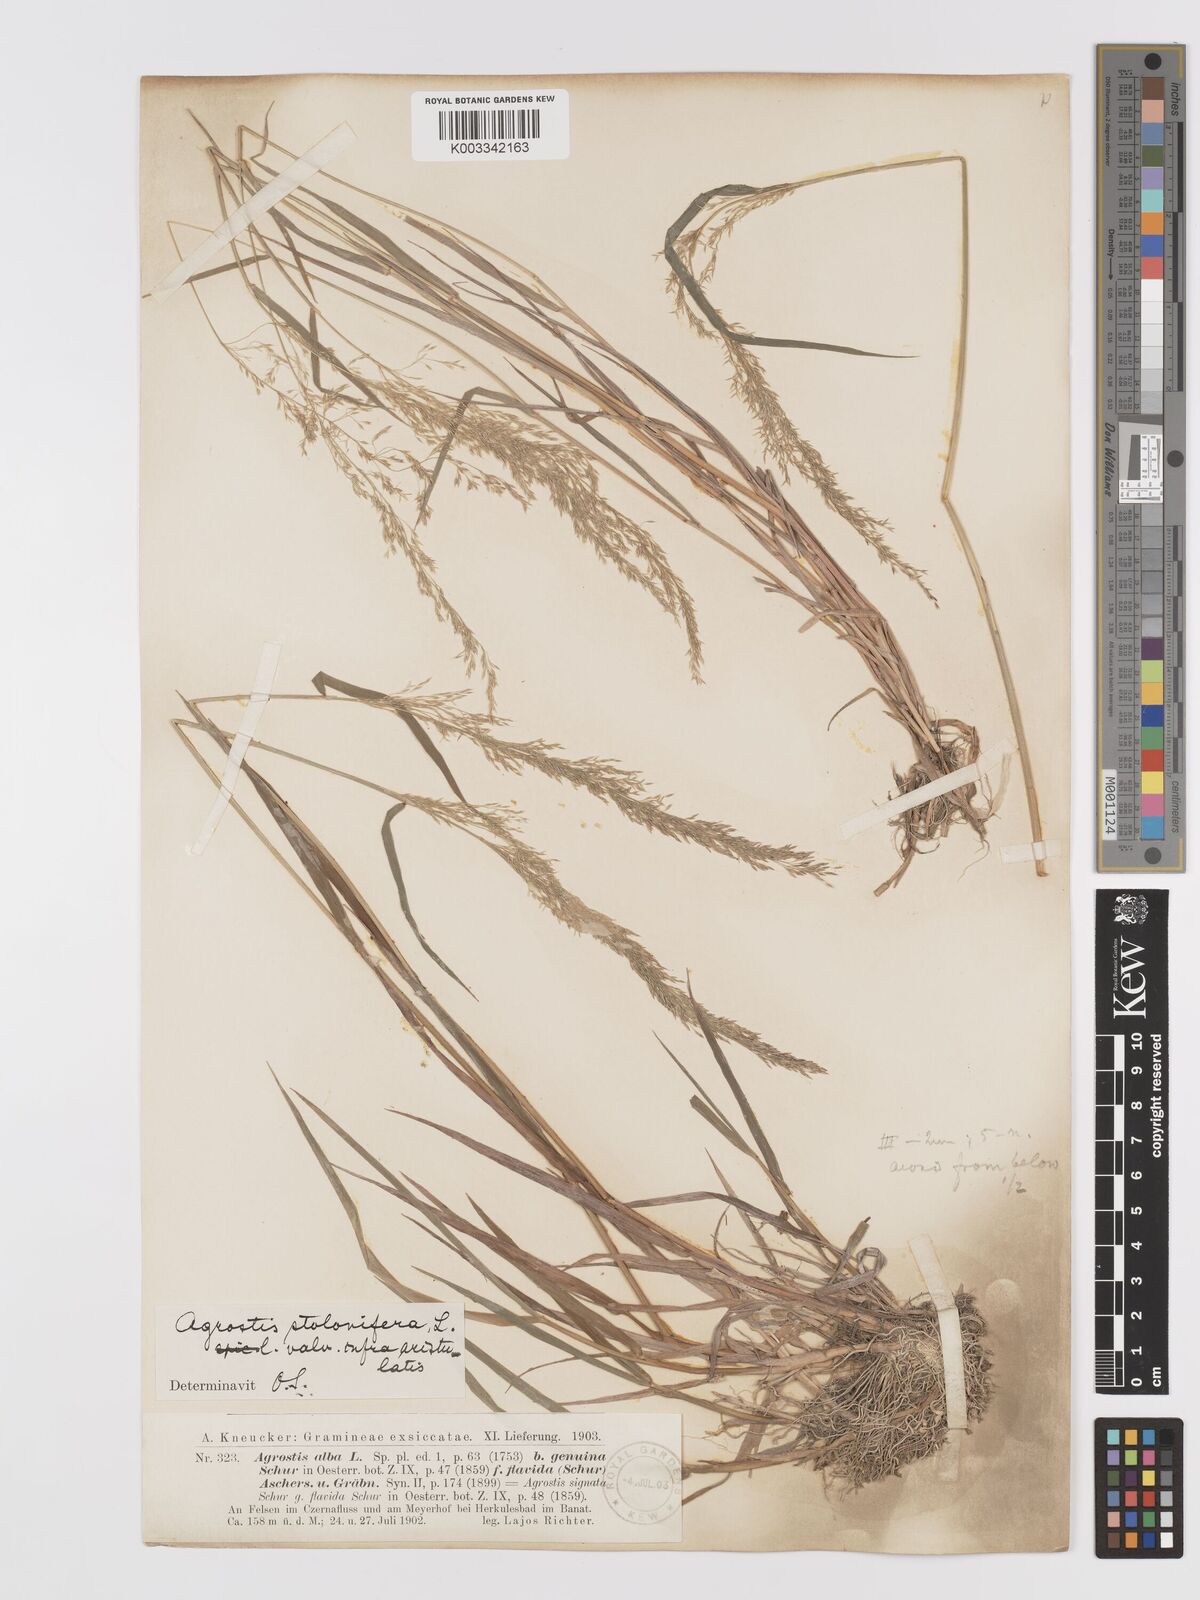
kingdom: Plantae
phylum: Tracheophyta
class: Liliopsida
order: Poales
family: Poaceae
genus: Agrostis
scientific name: Agrostis stolonifera
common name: Creeping bentgrass
